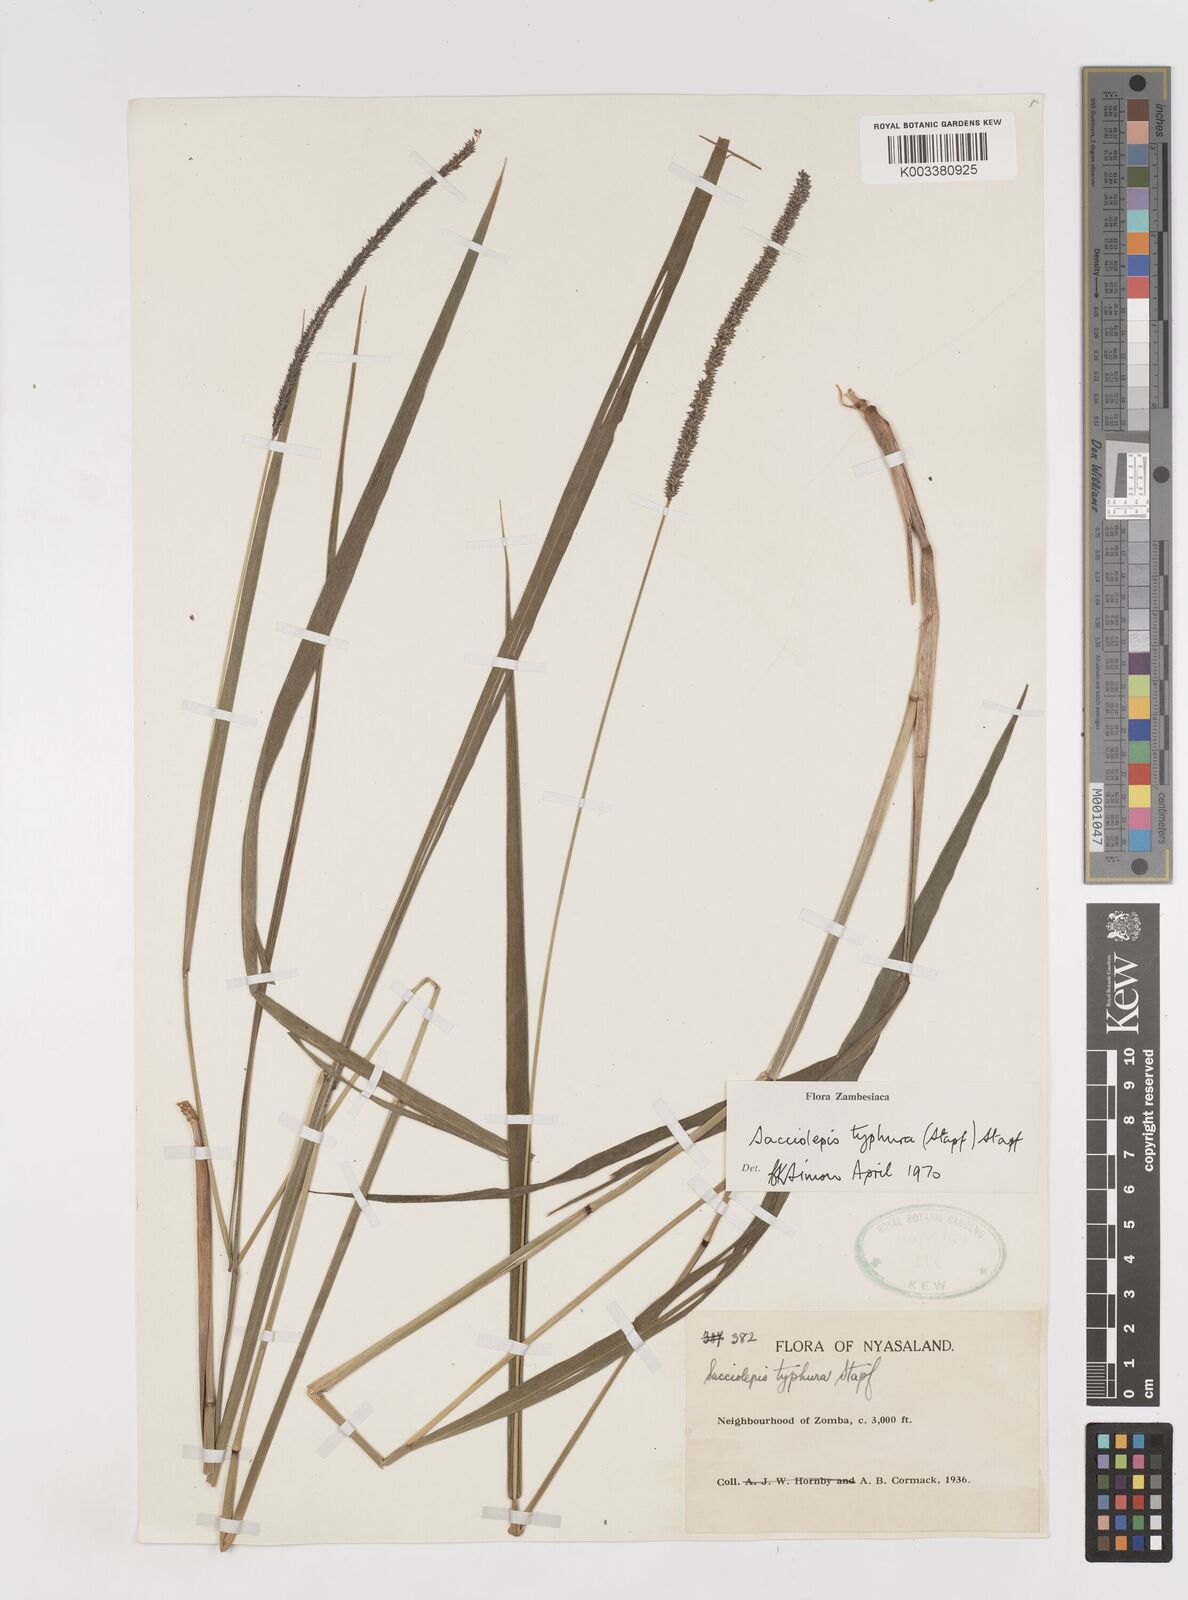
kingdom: Plantae
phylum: Tracheophyta
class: Liliopsida
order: Poales
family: Poaceae
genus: Sacciolepis
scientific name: Sacciolepis typhura
